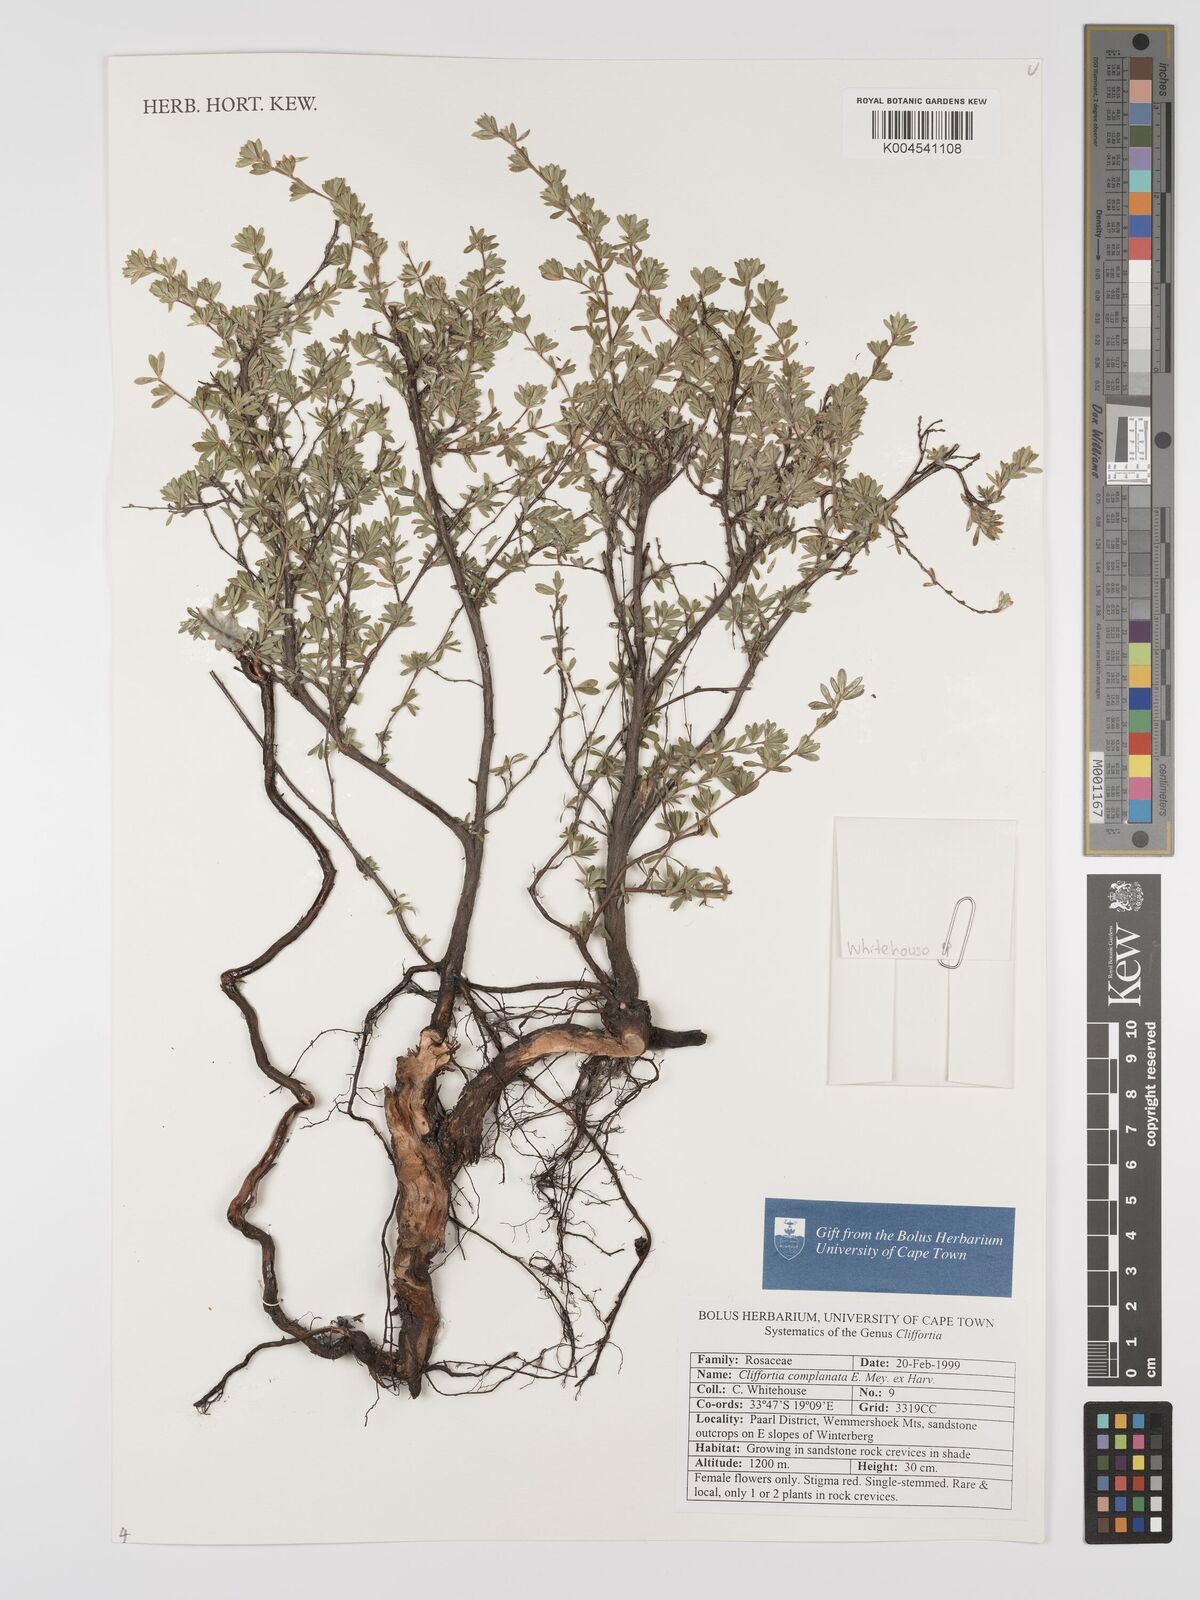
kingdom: Plantae
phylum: Tracheophyta
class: Magnoliopsida
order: Rosales
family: Rosaceae
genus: Cliffortia
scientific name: Cliffortia complanata
